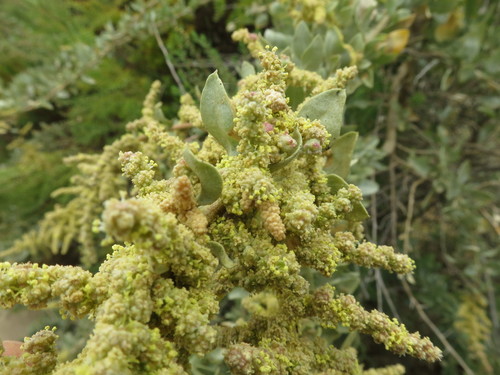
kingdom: Plantae
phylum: Tracheophyta
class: Magnoliopsida
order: Caryophyllales
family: Amaranthaceae
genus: Atriplex
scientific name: Atriplex halimus
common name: Shrubby orache
